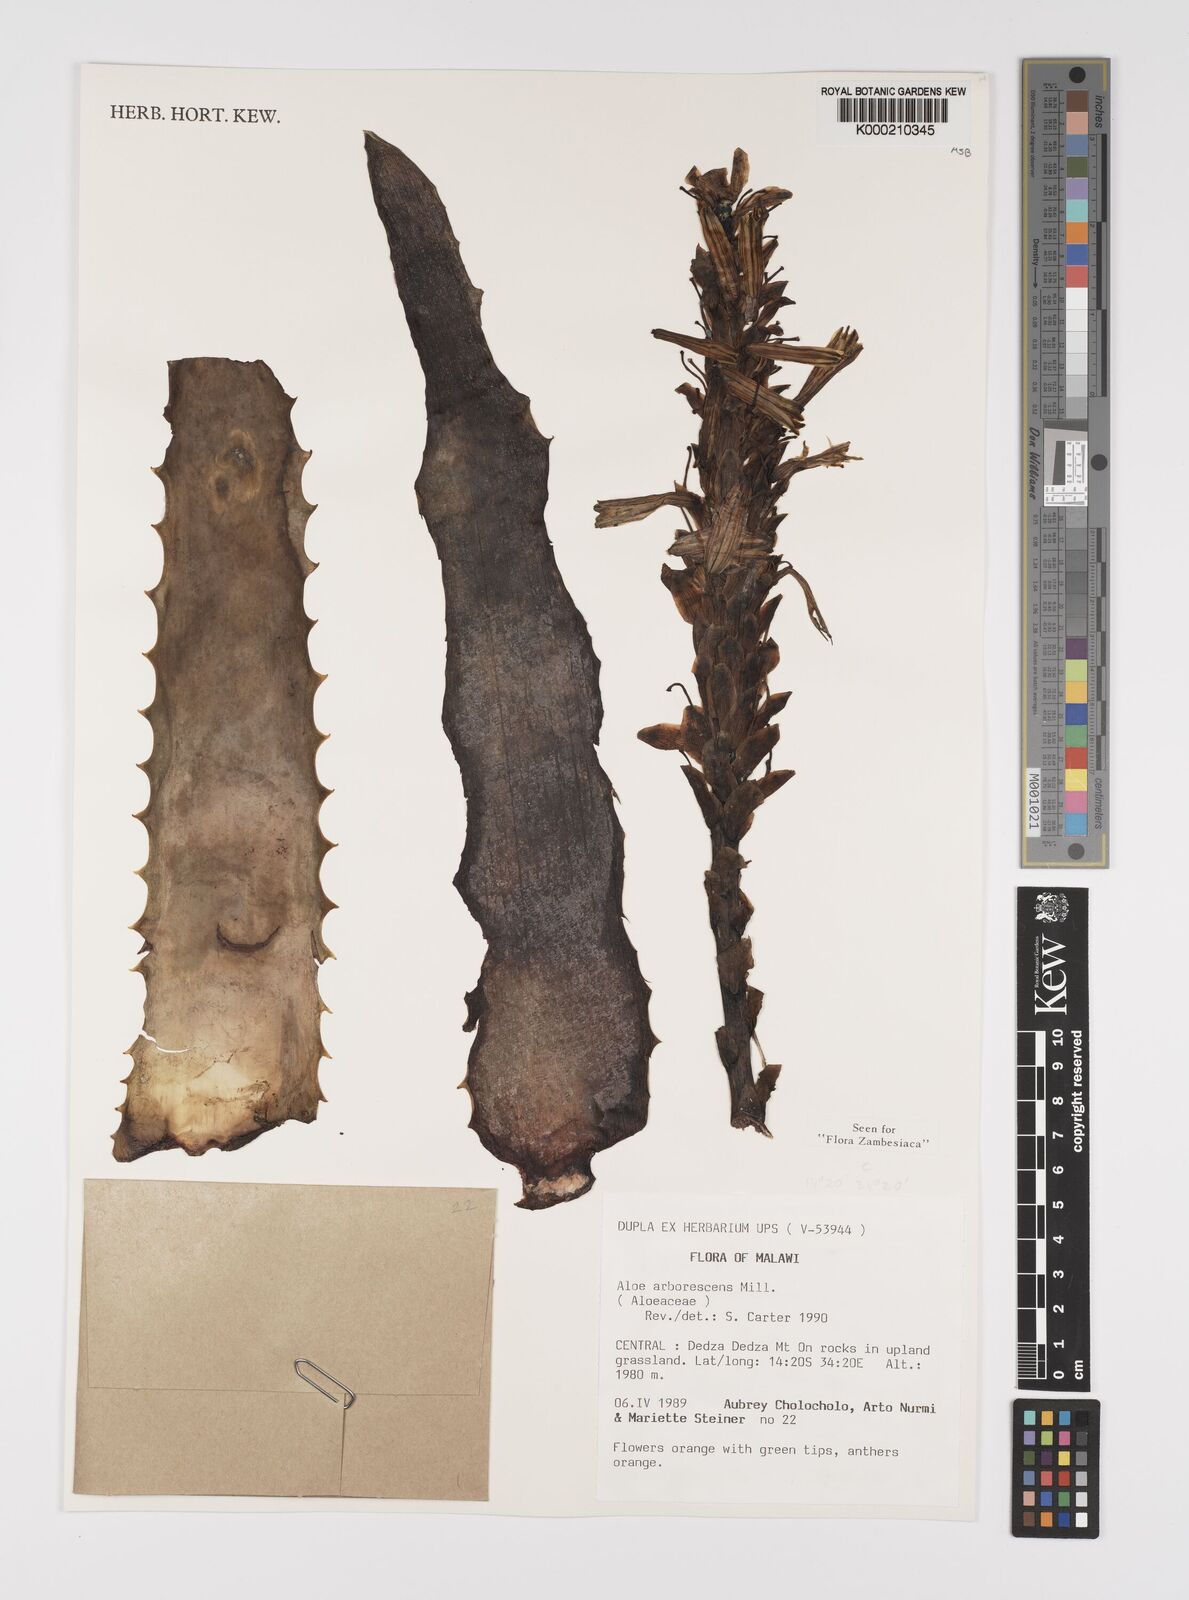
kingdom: Plantae
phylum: Tracheophyta
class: Liliopsida
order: Asparagales
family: Asphodelaceae
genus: Aloe
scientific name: Aloe arborescens
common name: Candelabra aloe
